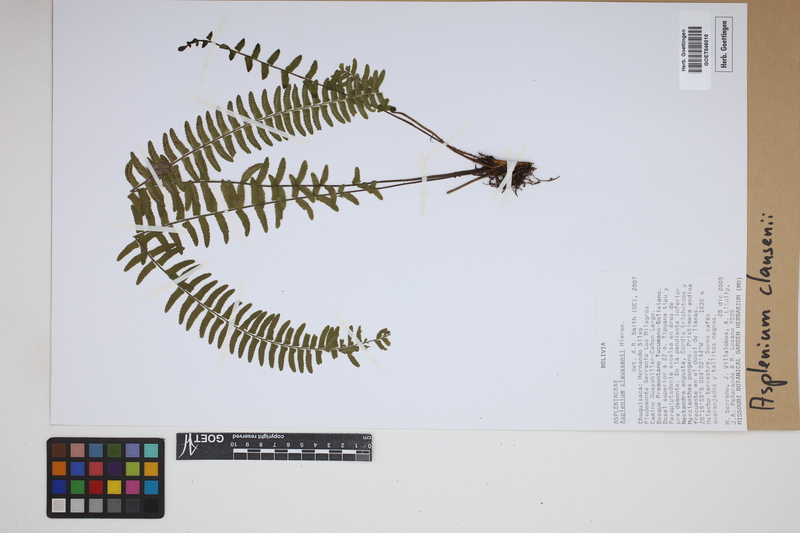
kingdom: Plantae
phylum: Tracheophyta
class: Polypodiopsida
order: Polypodiales
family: Aspleniaceae
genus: Asplenium
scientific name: Asplenium claussenii
